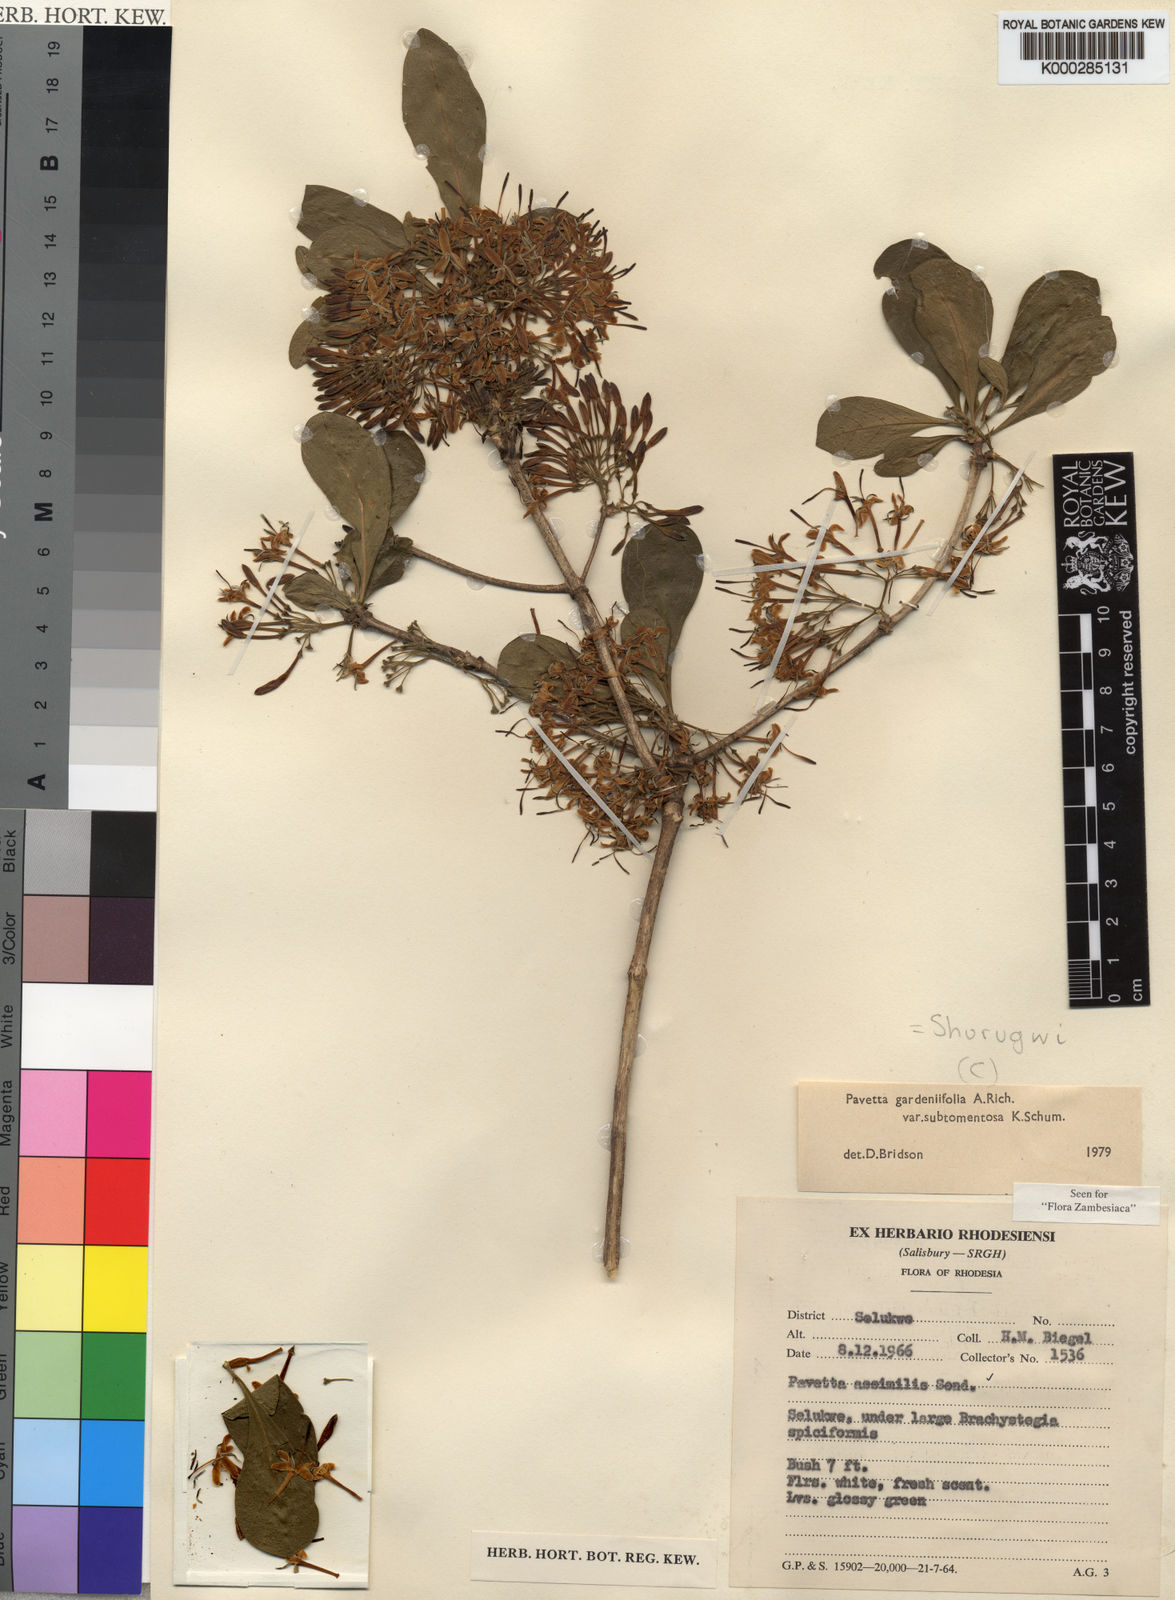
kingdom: Plantae
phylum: Tracheophyta
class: Magnoliopsida
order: Gentianales
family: Rubiaceae
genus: Pavetta
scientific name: Pavetta gardeniifolia
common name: Common brides-bush
